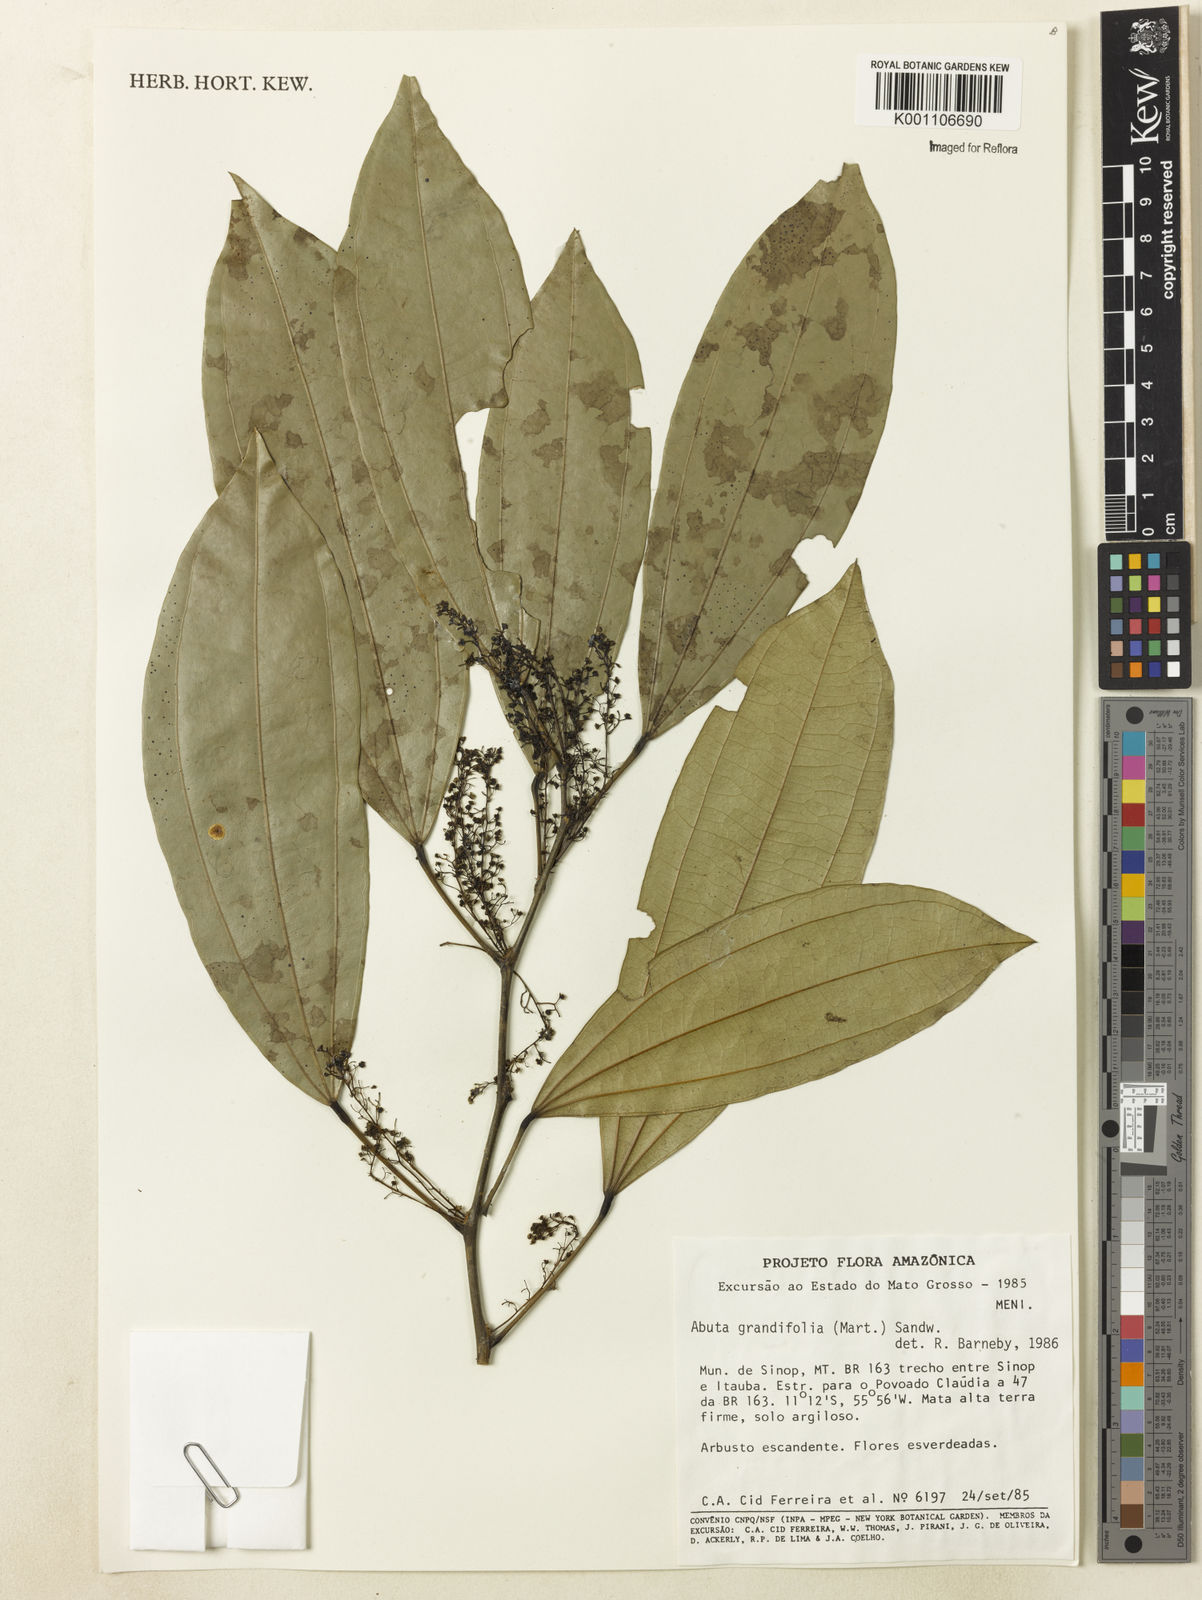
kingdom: Plantae
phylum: Tracheophyta
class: Magnoliopsida
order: Ranunculales
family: Menispermaceae
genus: Abuta
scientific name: Abuta grandifolia
